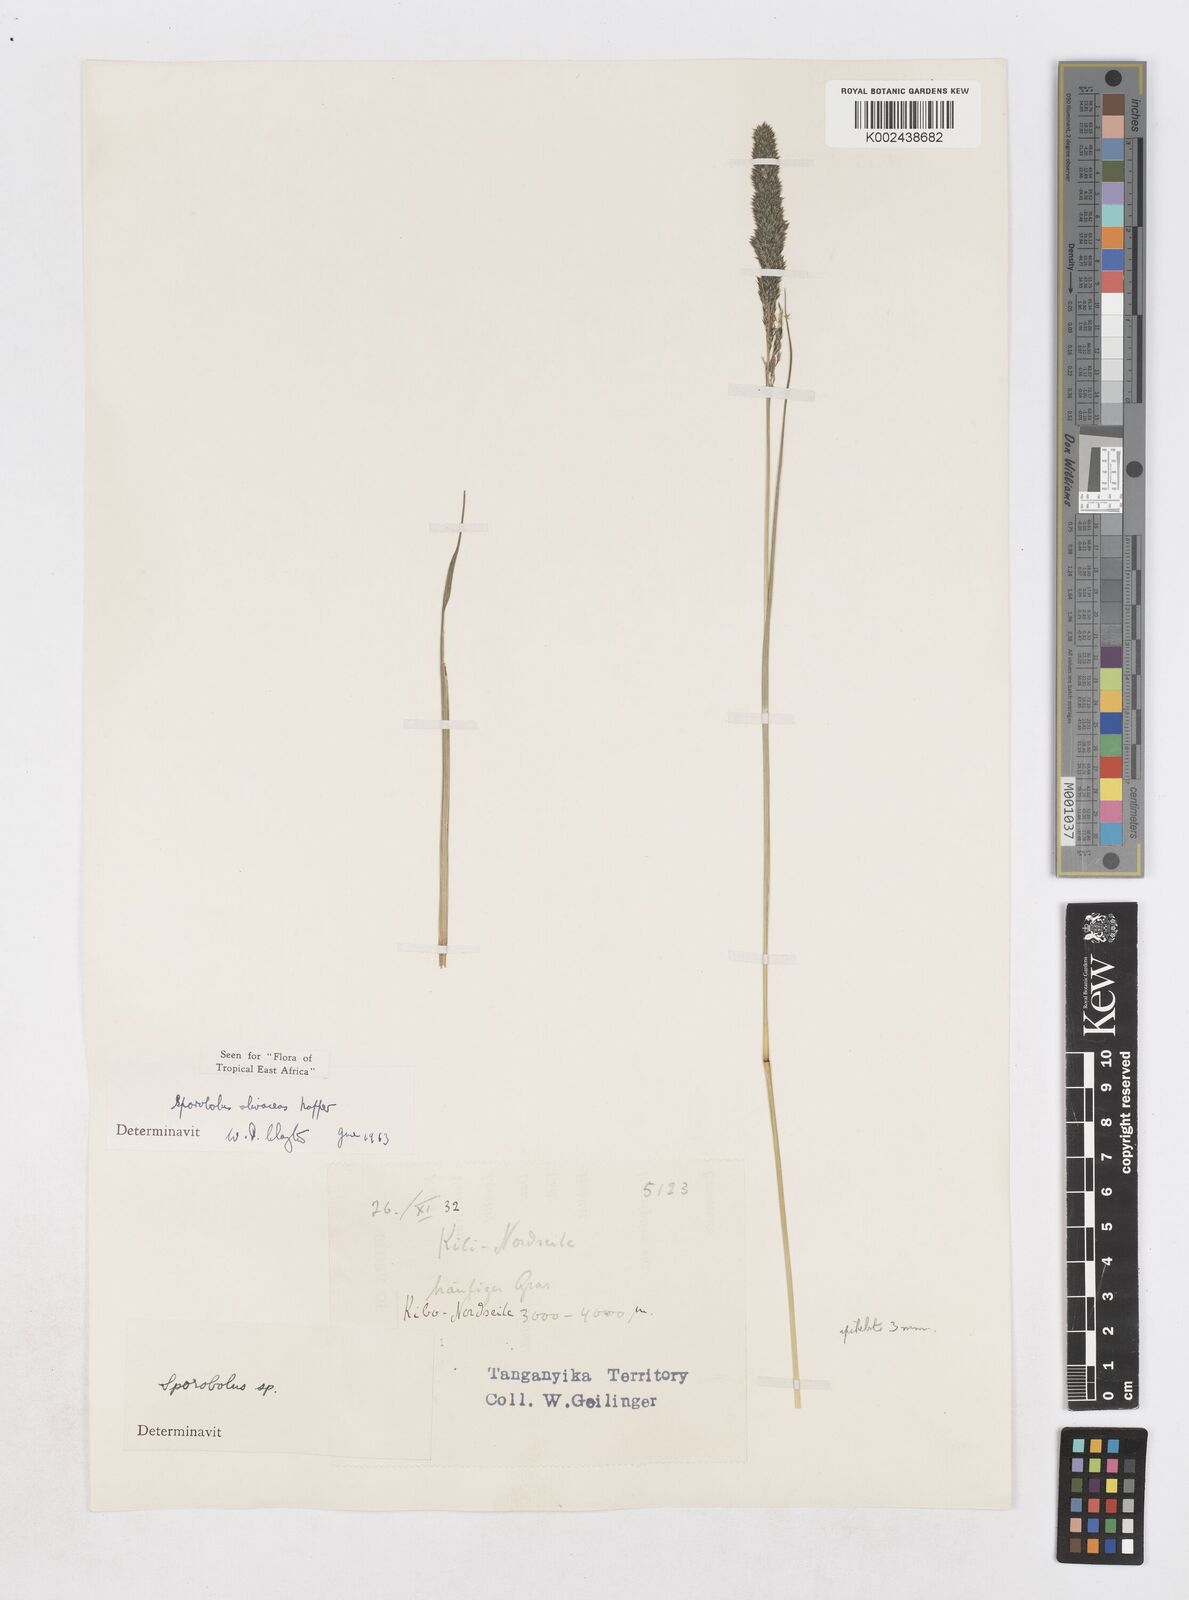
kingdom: Plantae
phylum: Tracheophyta
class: Liliopsida
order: Poales
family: Poaceae
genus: Sporobolus
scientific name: Sporobolus olivaceus
